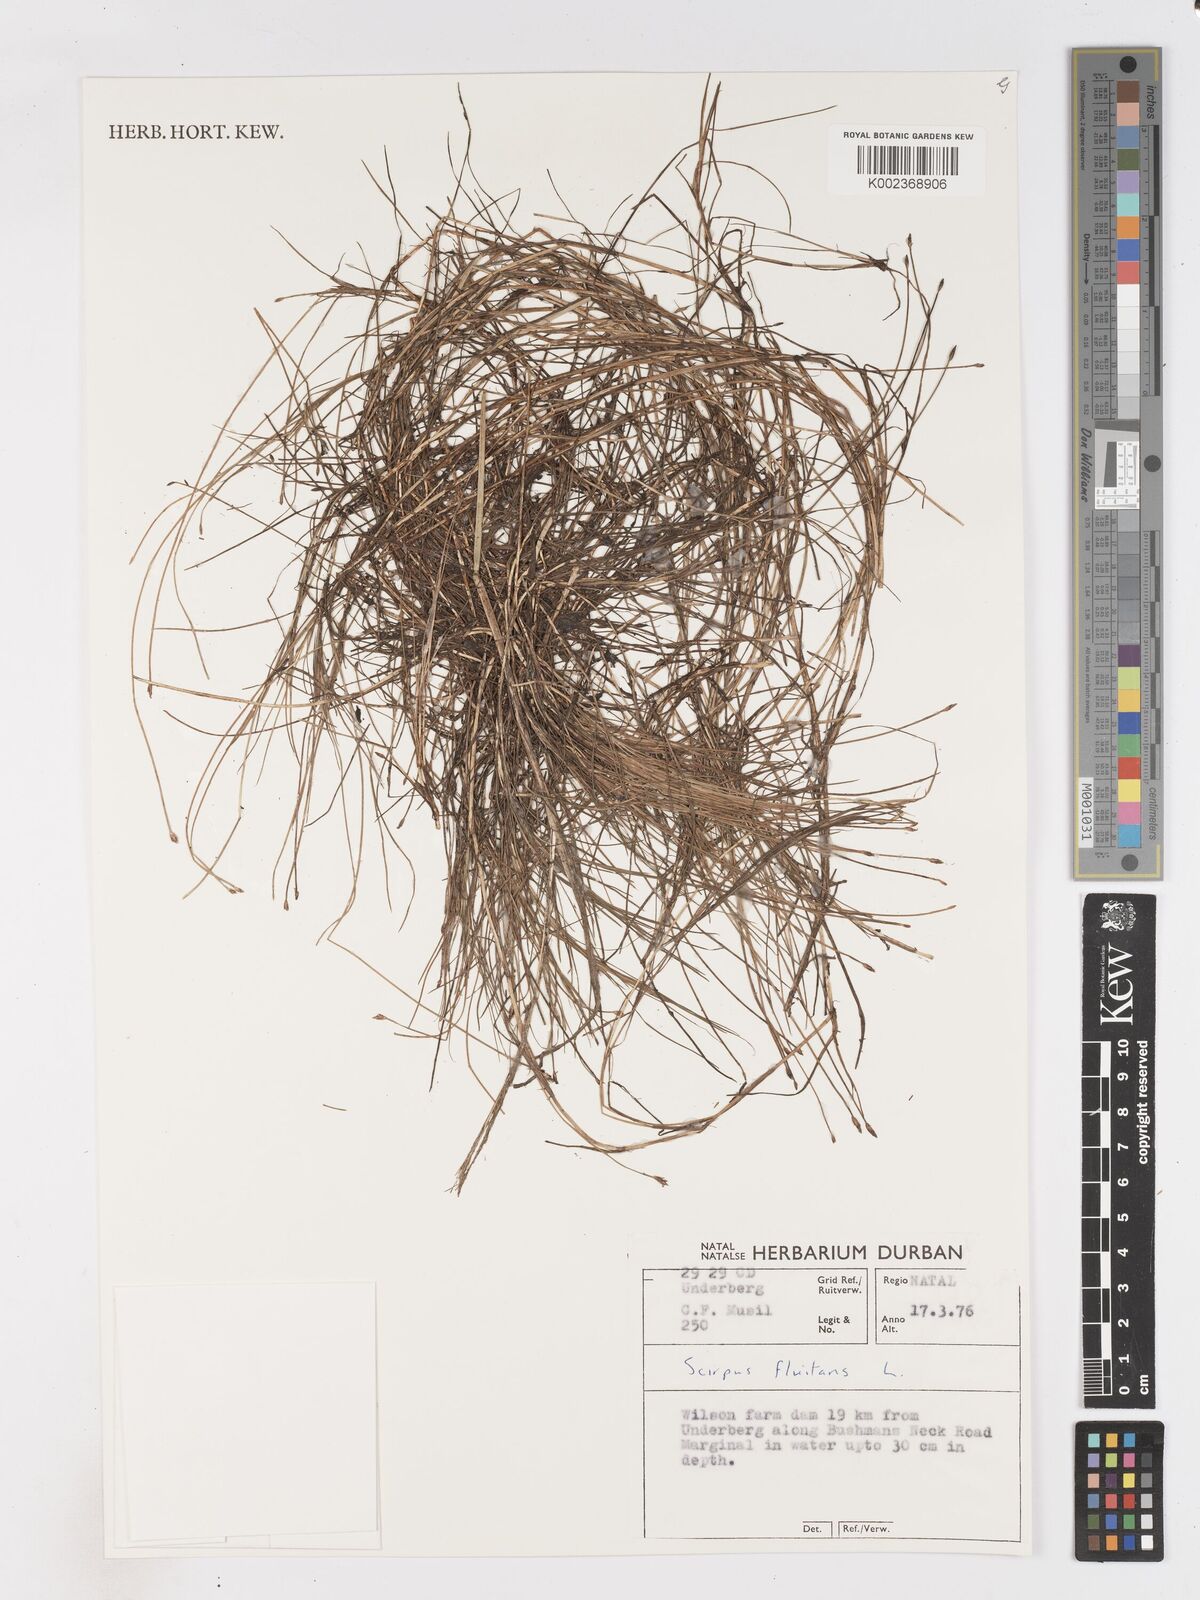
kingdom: Plantae
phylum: Tracheophyta
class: Liliopsida
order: Poales
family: Cyperaceae
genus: Isolepis
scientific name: Isolepis fluitans
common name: Floating club-rush
